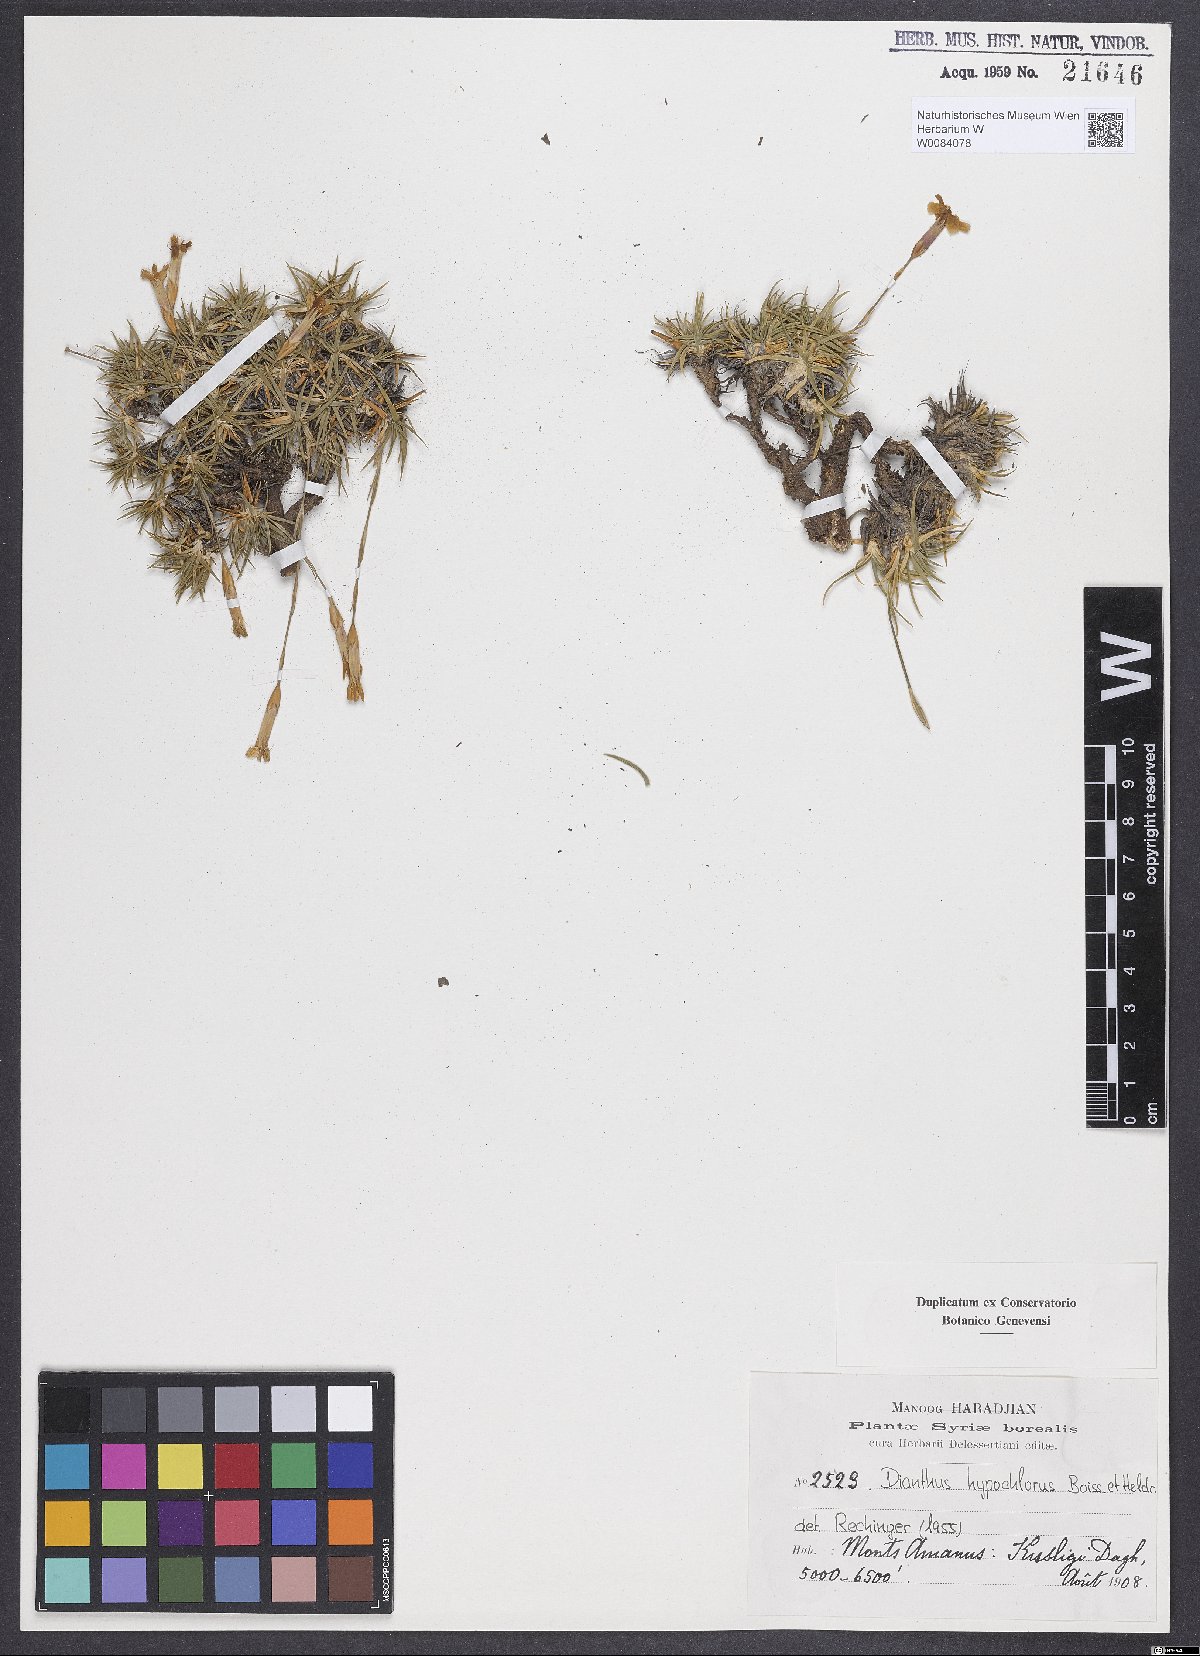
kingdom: Plantae
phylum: Tracheophyta
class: Magnoliopsida
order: Caryophyllales
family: Caryophyllaceae
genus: Dianthus
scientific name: Dianthus zonatus
